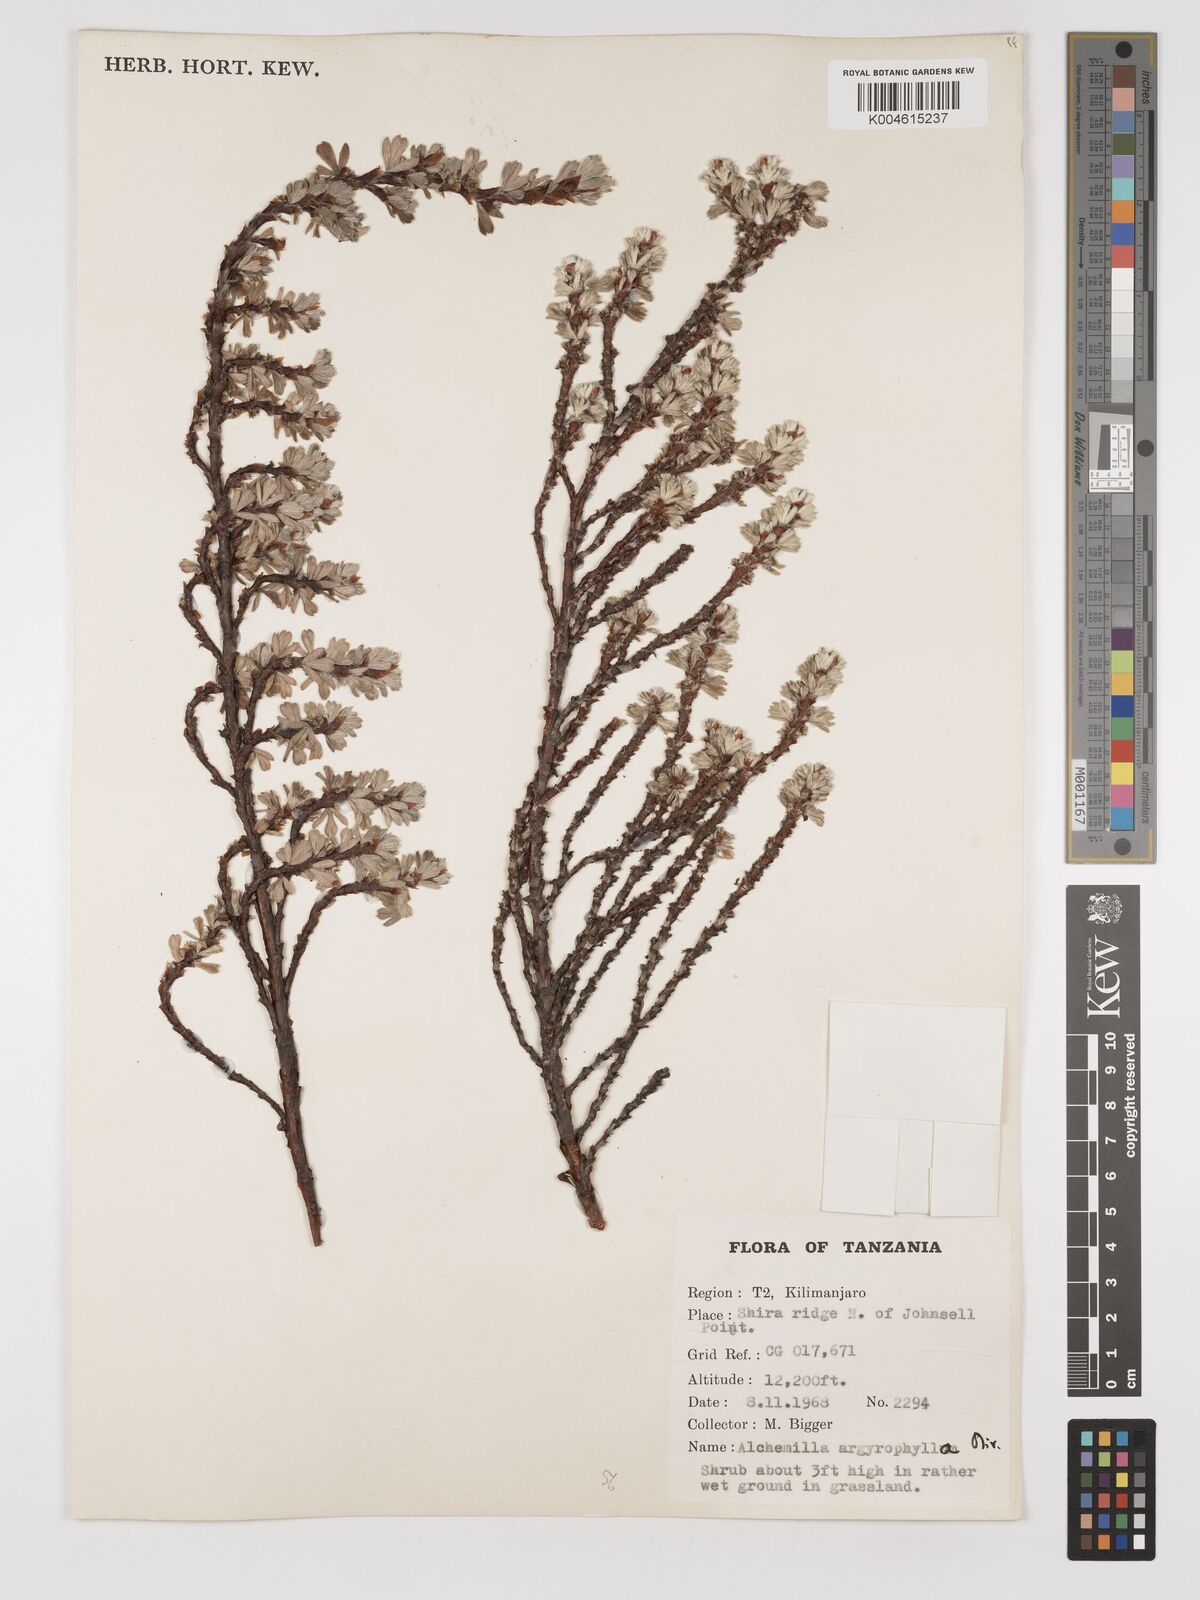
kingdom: Plantae
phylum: Tracheophyta
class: Magnoliopsida
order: Rosales
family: Rosaceae
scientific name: Rosaceae
